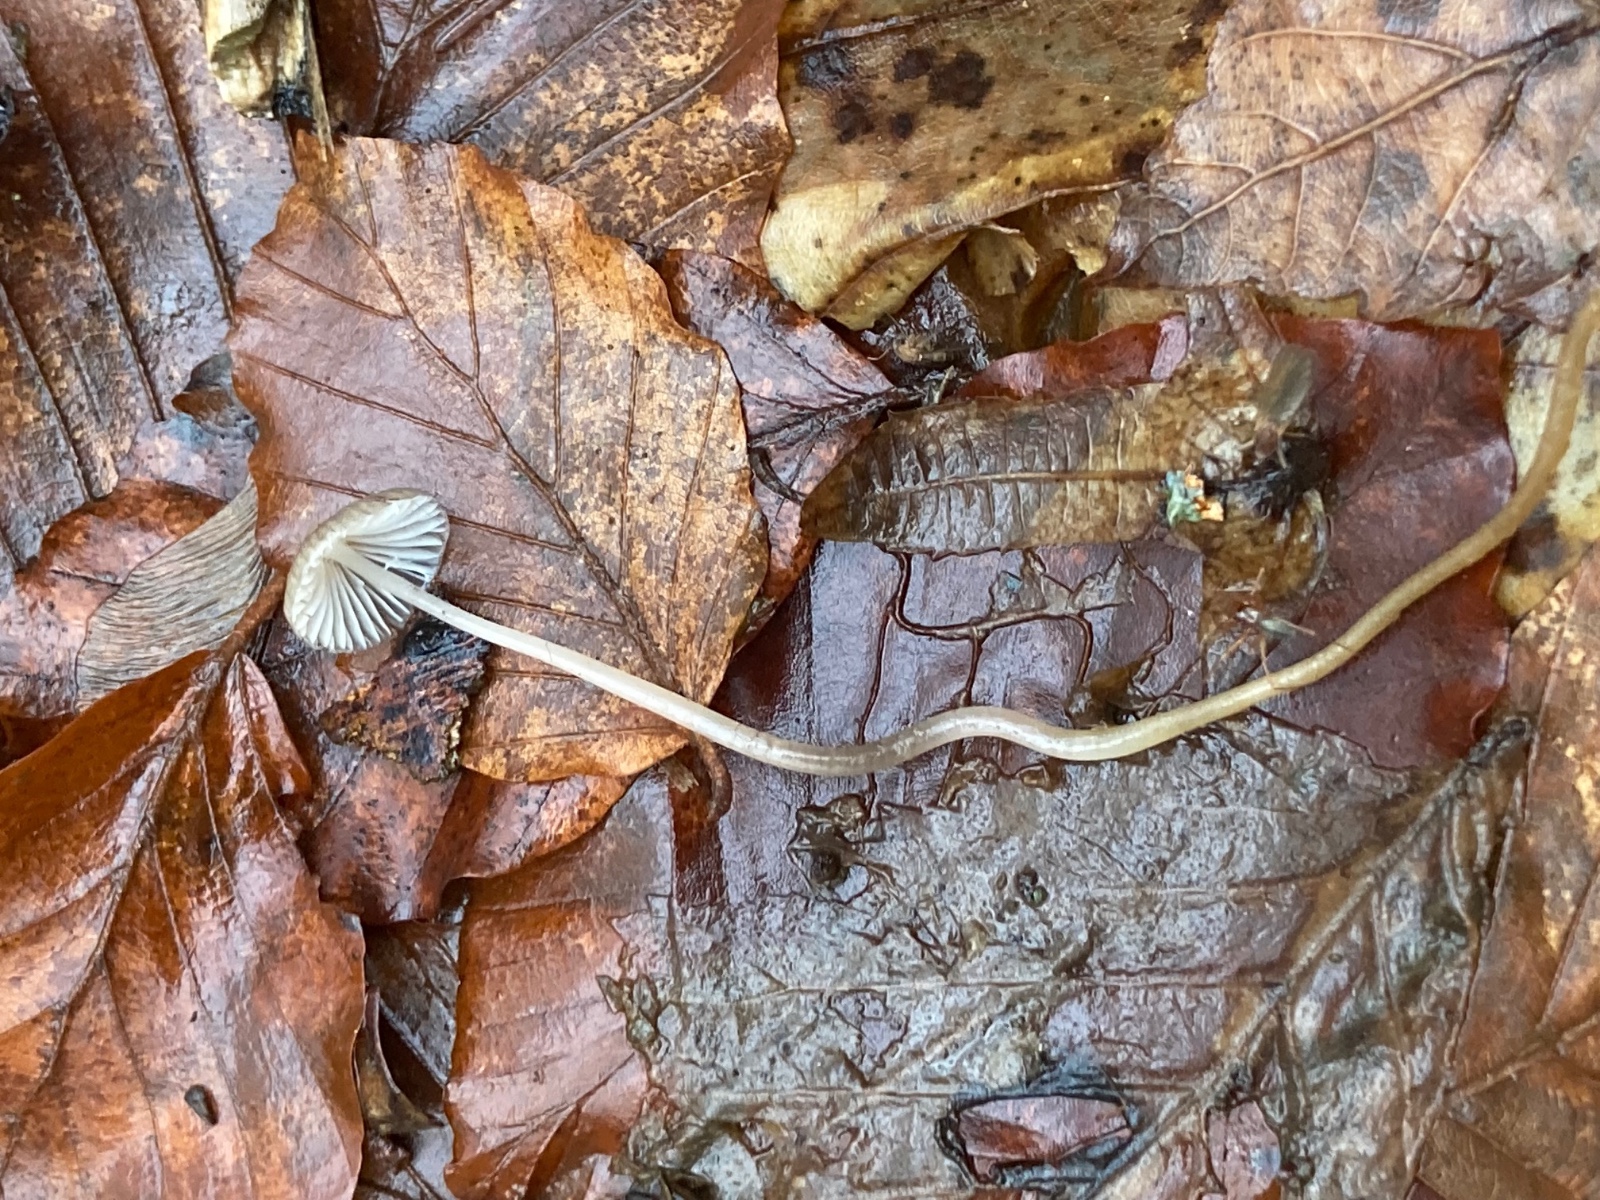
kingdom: Fungi
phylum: Basidiomycota
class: Agaricomycetes
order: Agaricales
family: Mycenaceae
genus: Mycena
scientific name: Mycena vitilis
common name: blankstokket huesvamp
